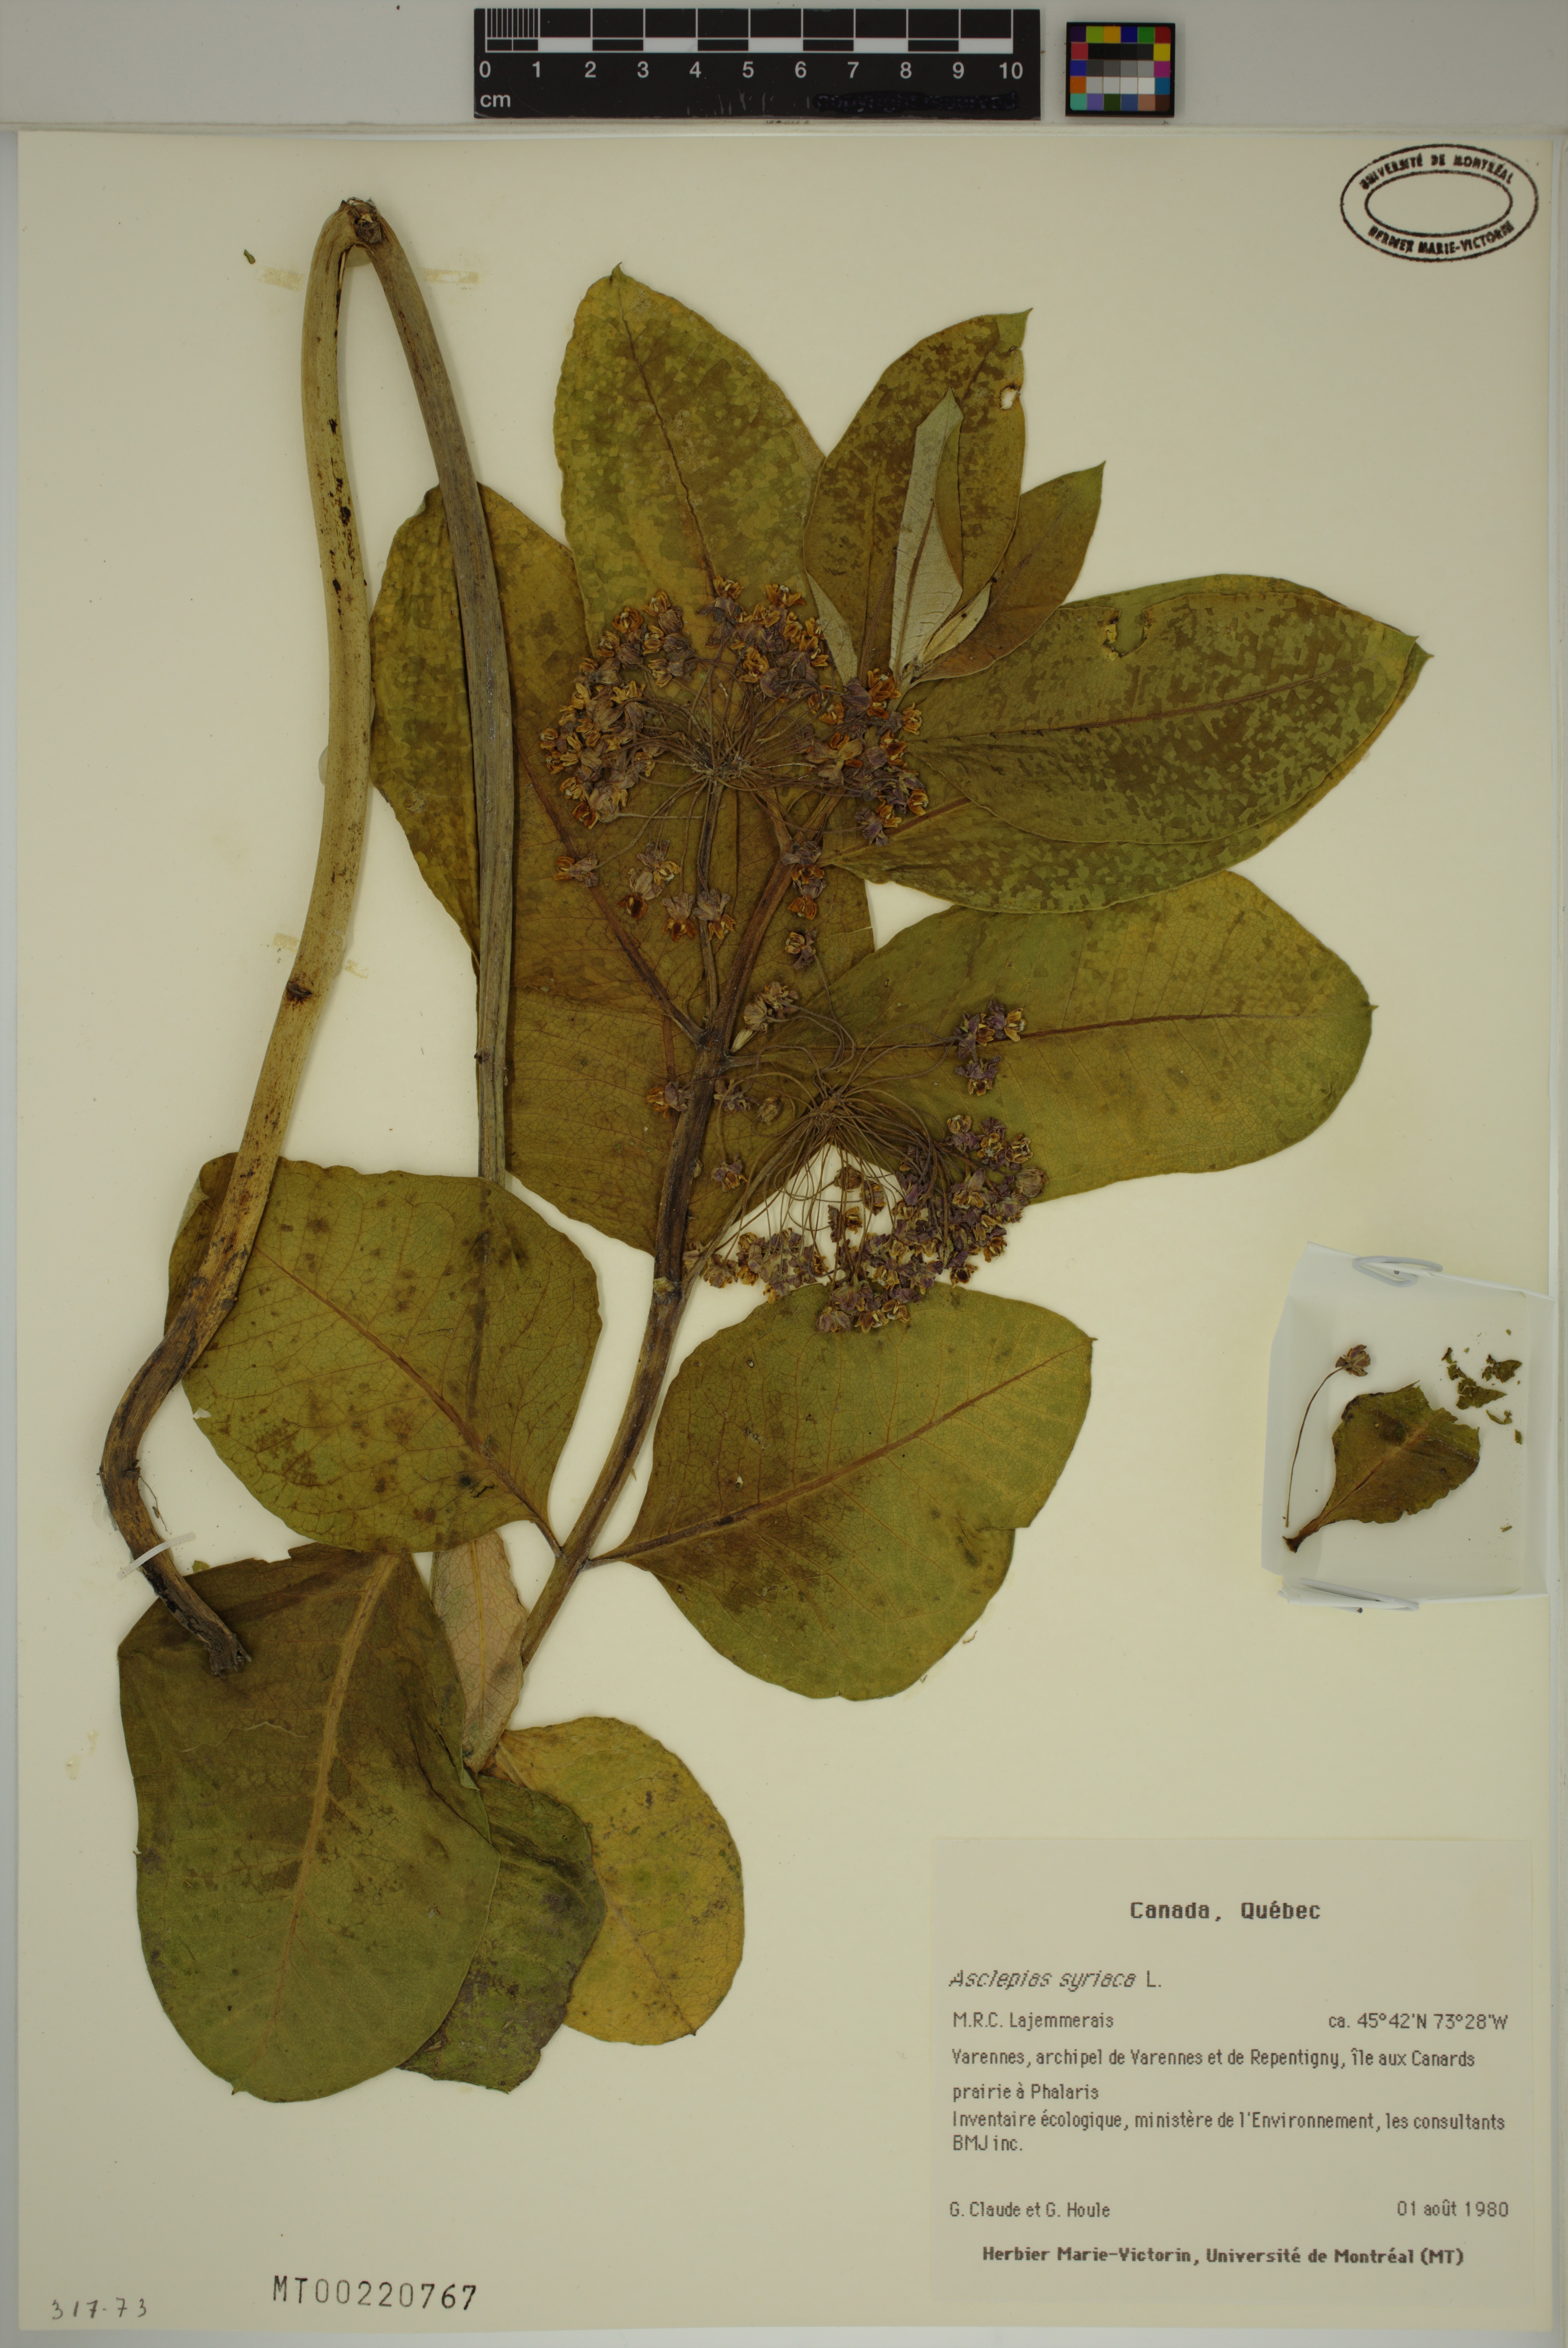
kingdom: Plantae
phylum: Tracheophyta
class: Magnoliopsida
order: Gentianales
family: Apocynaceae
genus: Asclepias
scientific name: Asclepias syriaca
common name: Common milkweed
